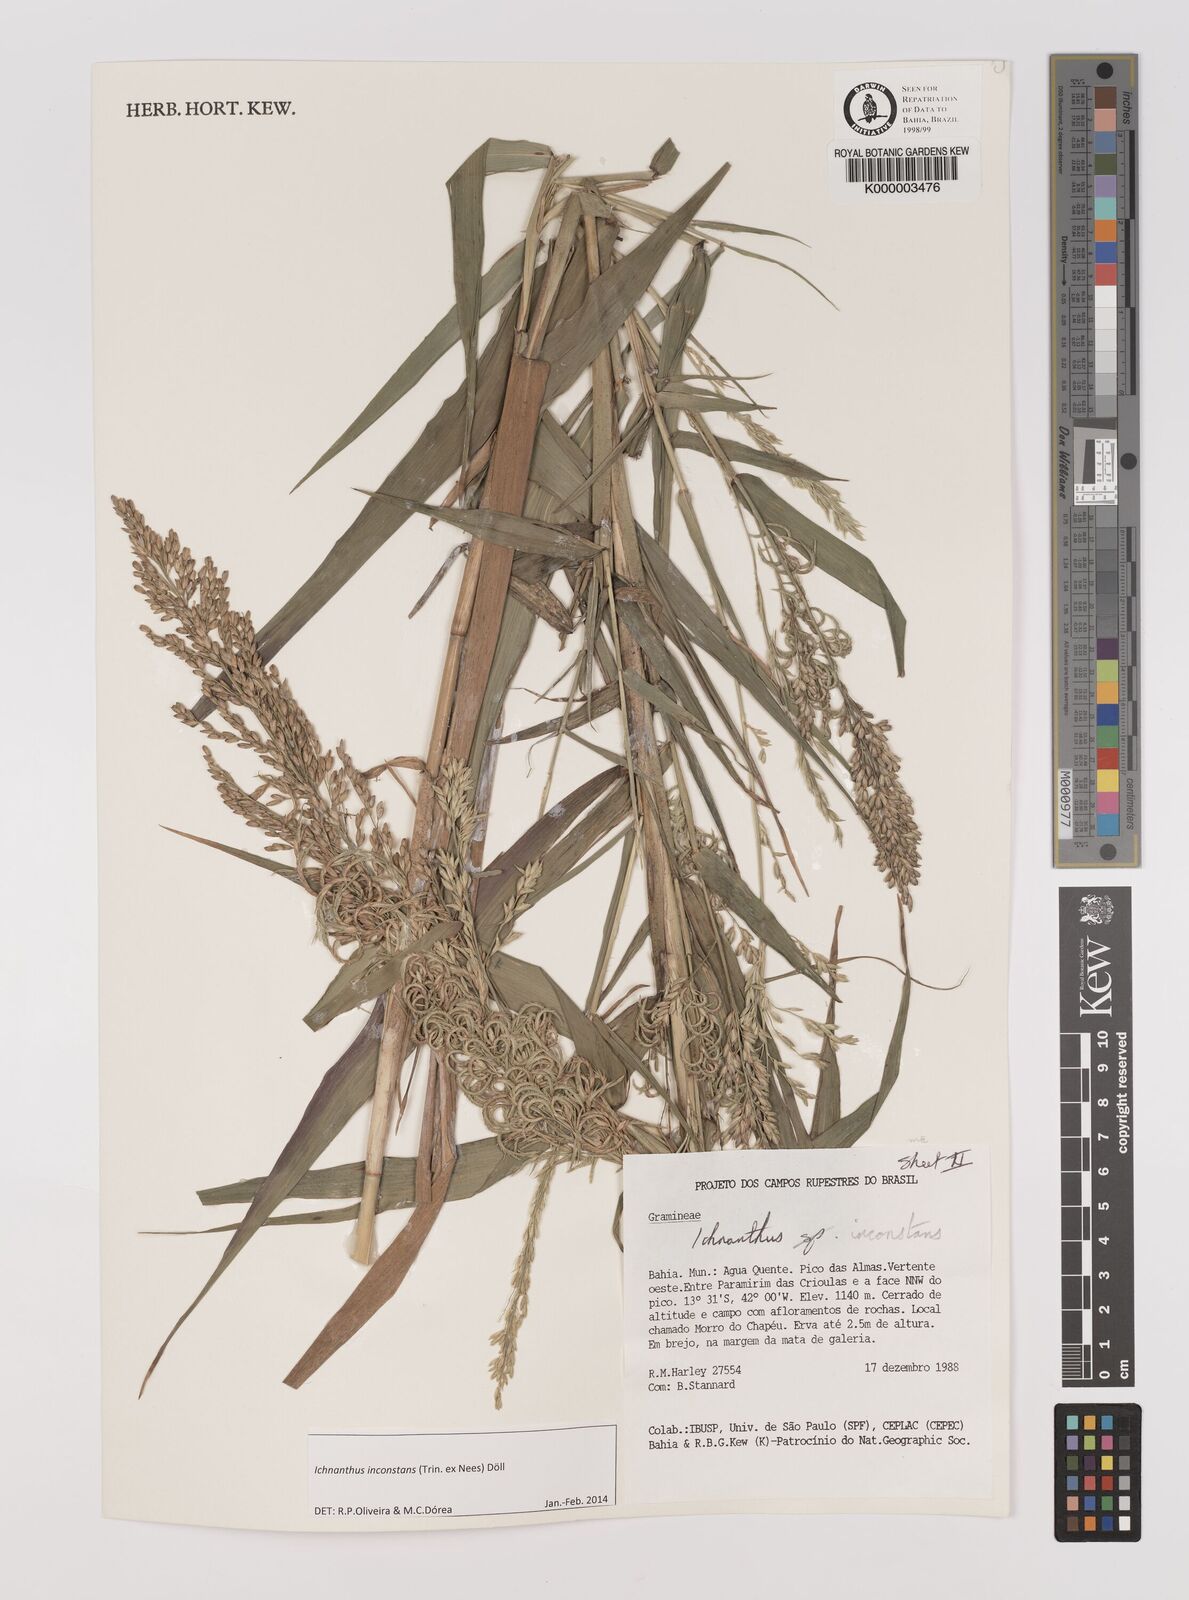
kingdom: Plantae
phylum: Tracheophyta
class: Liliopsida
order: Poales
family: Poaceae
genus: Ichnanthus
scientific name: Ichnanthus
